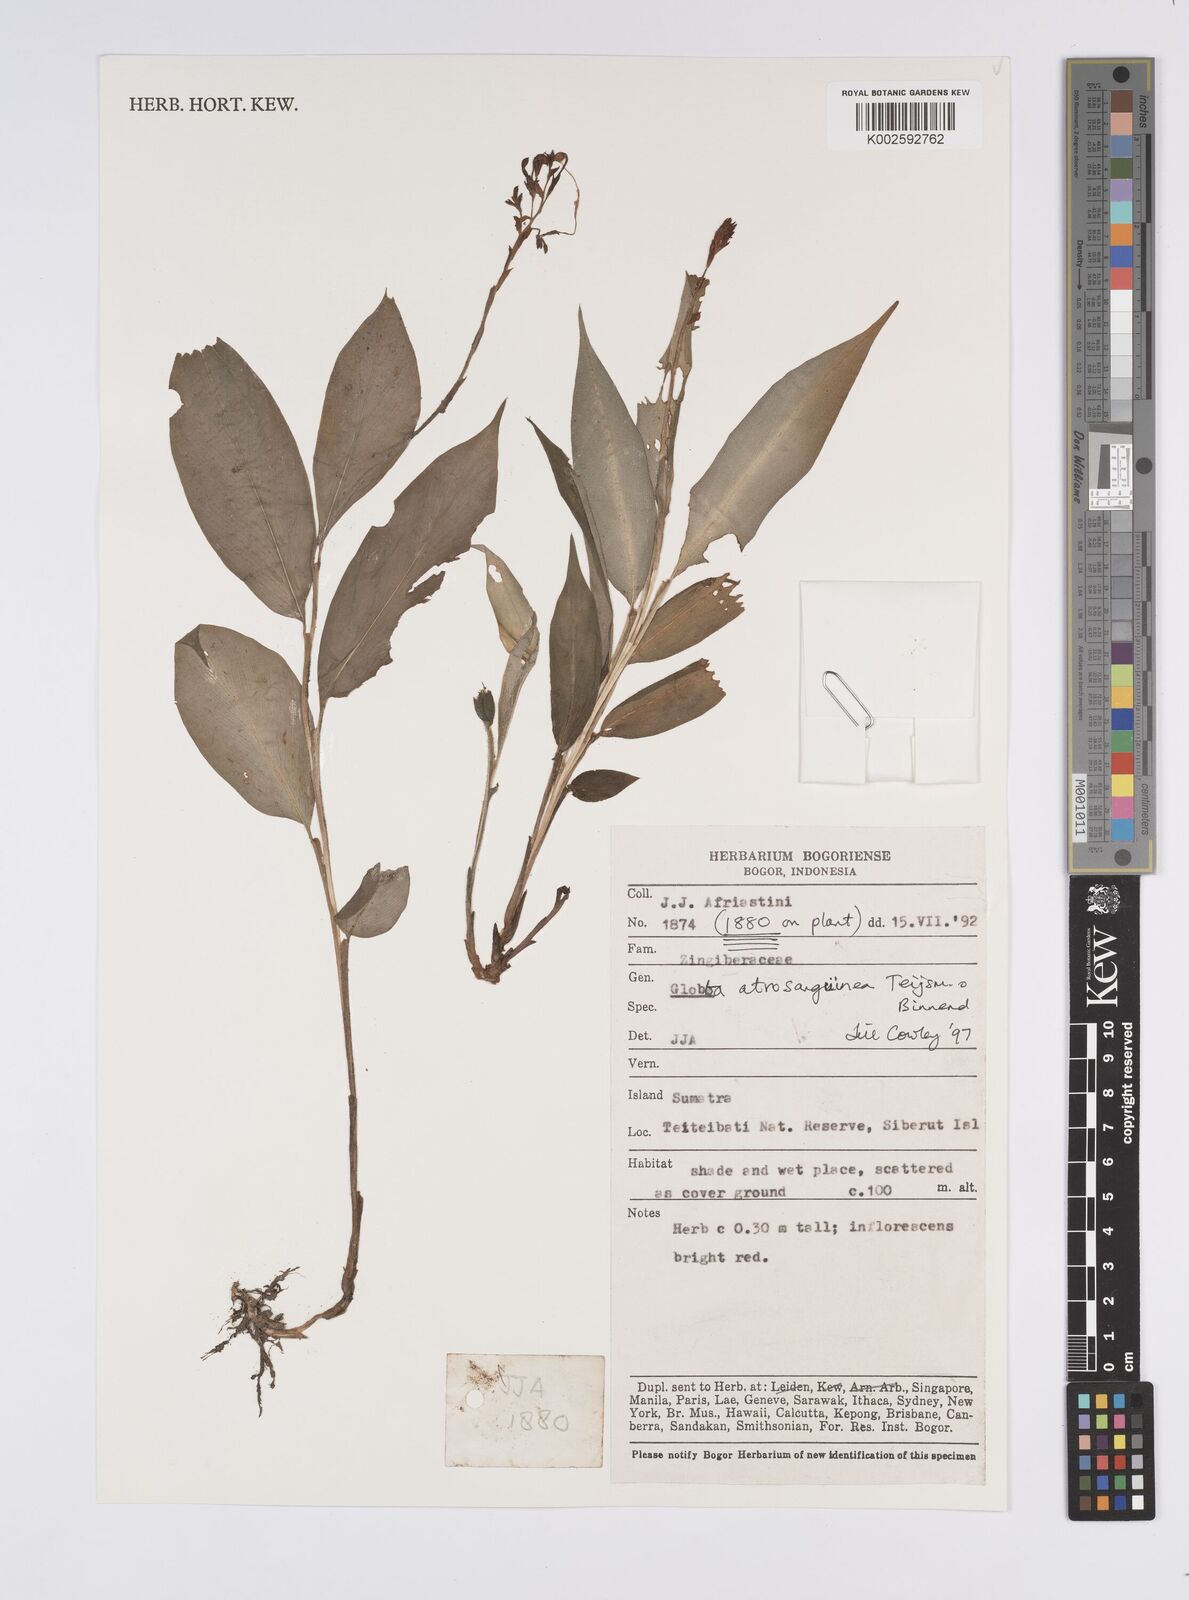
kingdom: Plantae
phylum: Tracheophyta
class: Liliopsida
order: Zingiberales
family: Zingiberaceae
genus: Globba
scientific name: Globba atrosanguinea
